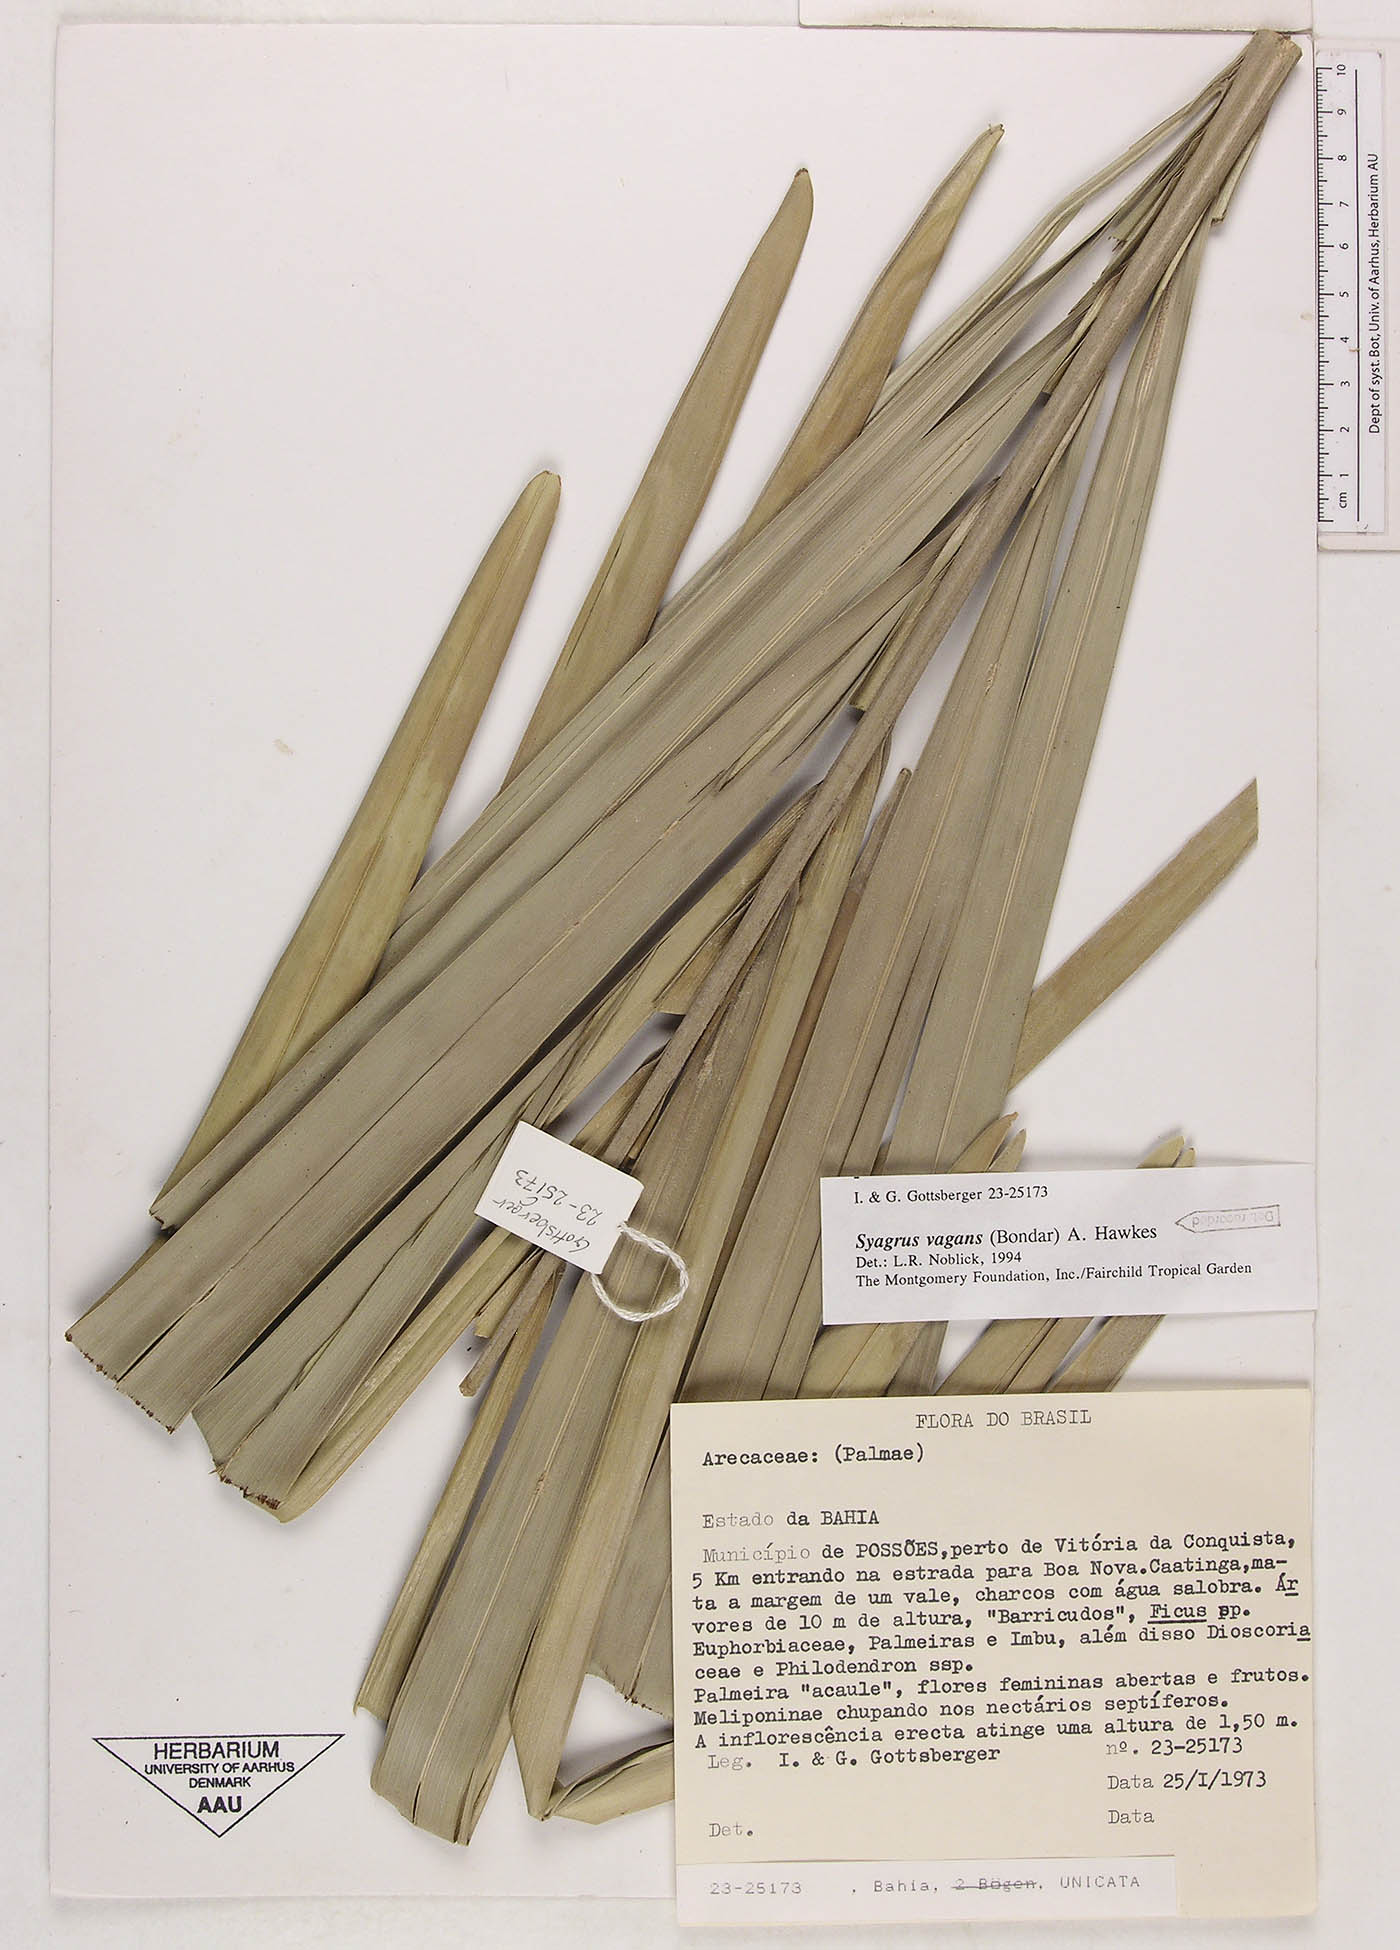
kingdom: Plantae
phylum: Tracheophyta
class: Liliopsida
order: Arecales
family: Arecaceae
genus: Syagrus
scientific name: Syagrus vagans
